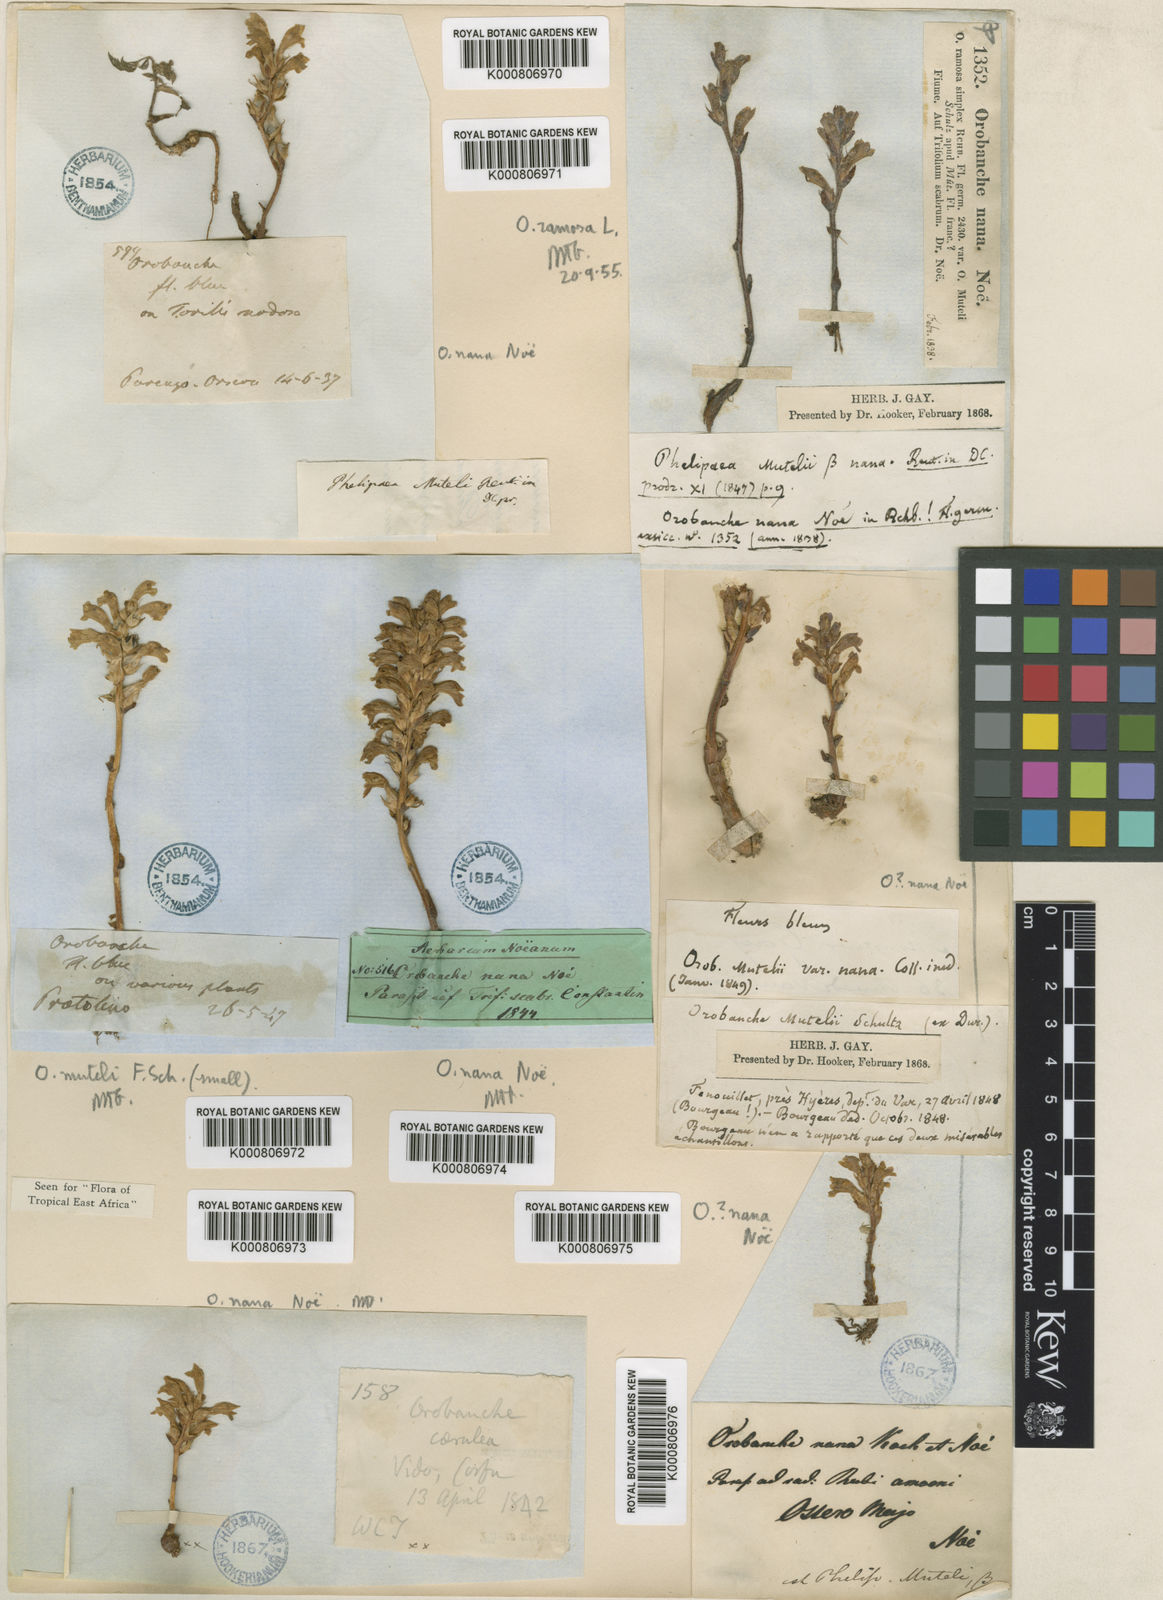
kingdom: Plantae
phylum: Tracheophyta
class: Magnoliopsida
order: Lamiales
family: Orobanchaceae
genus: Orobanche
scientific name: Orobanche
